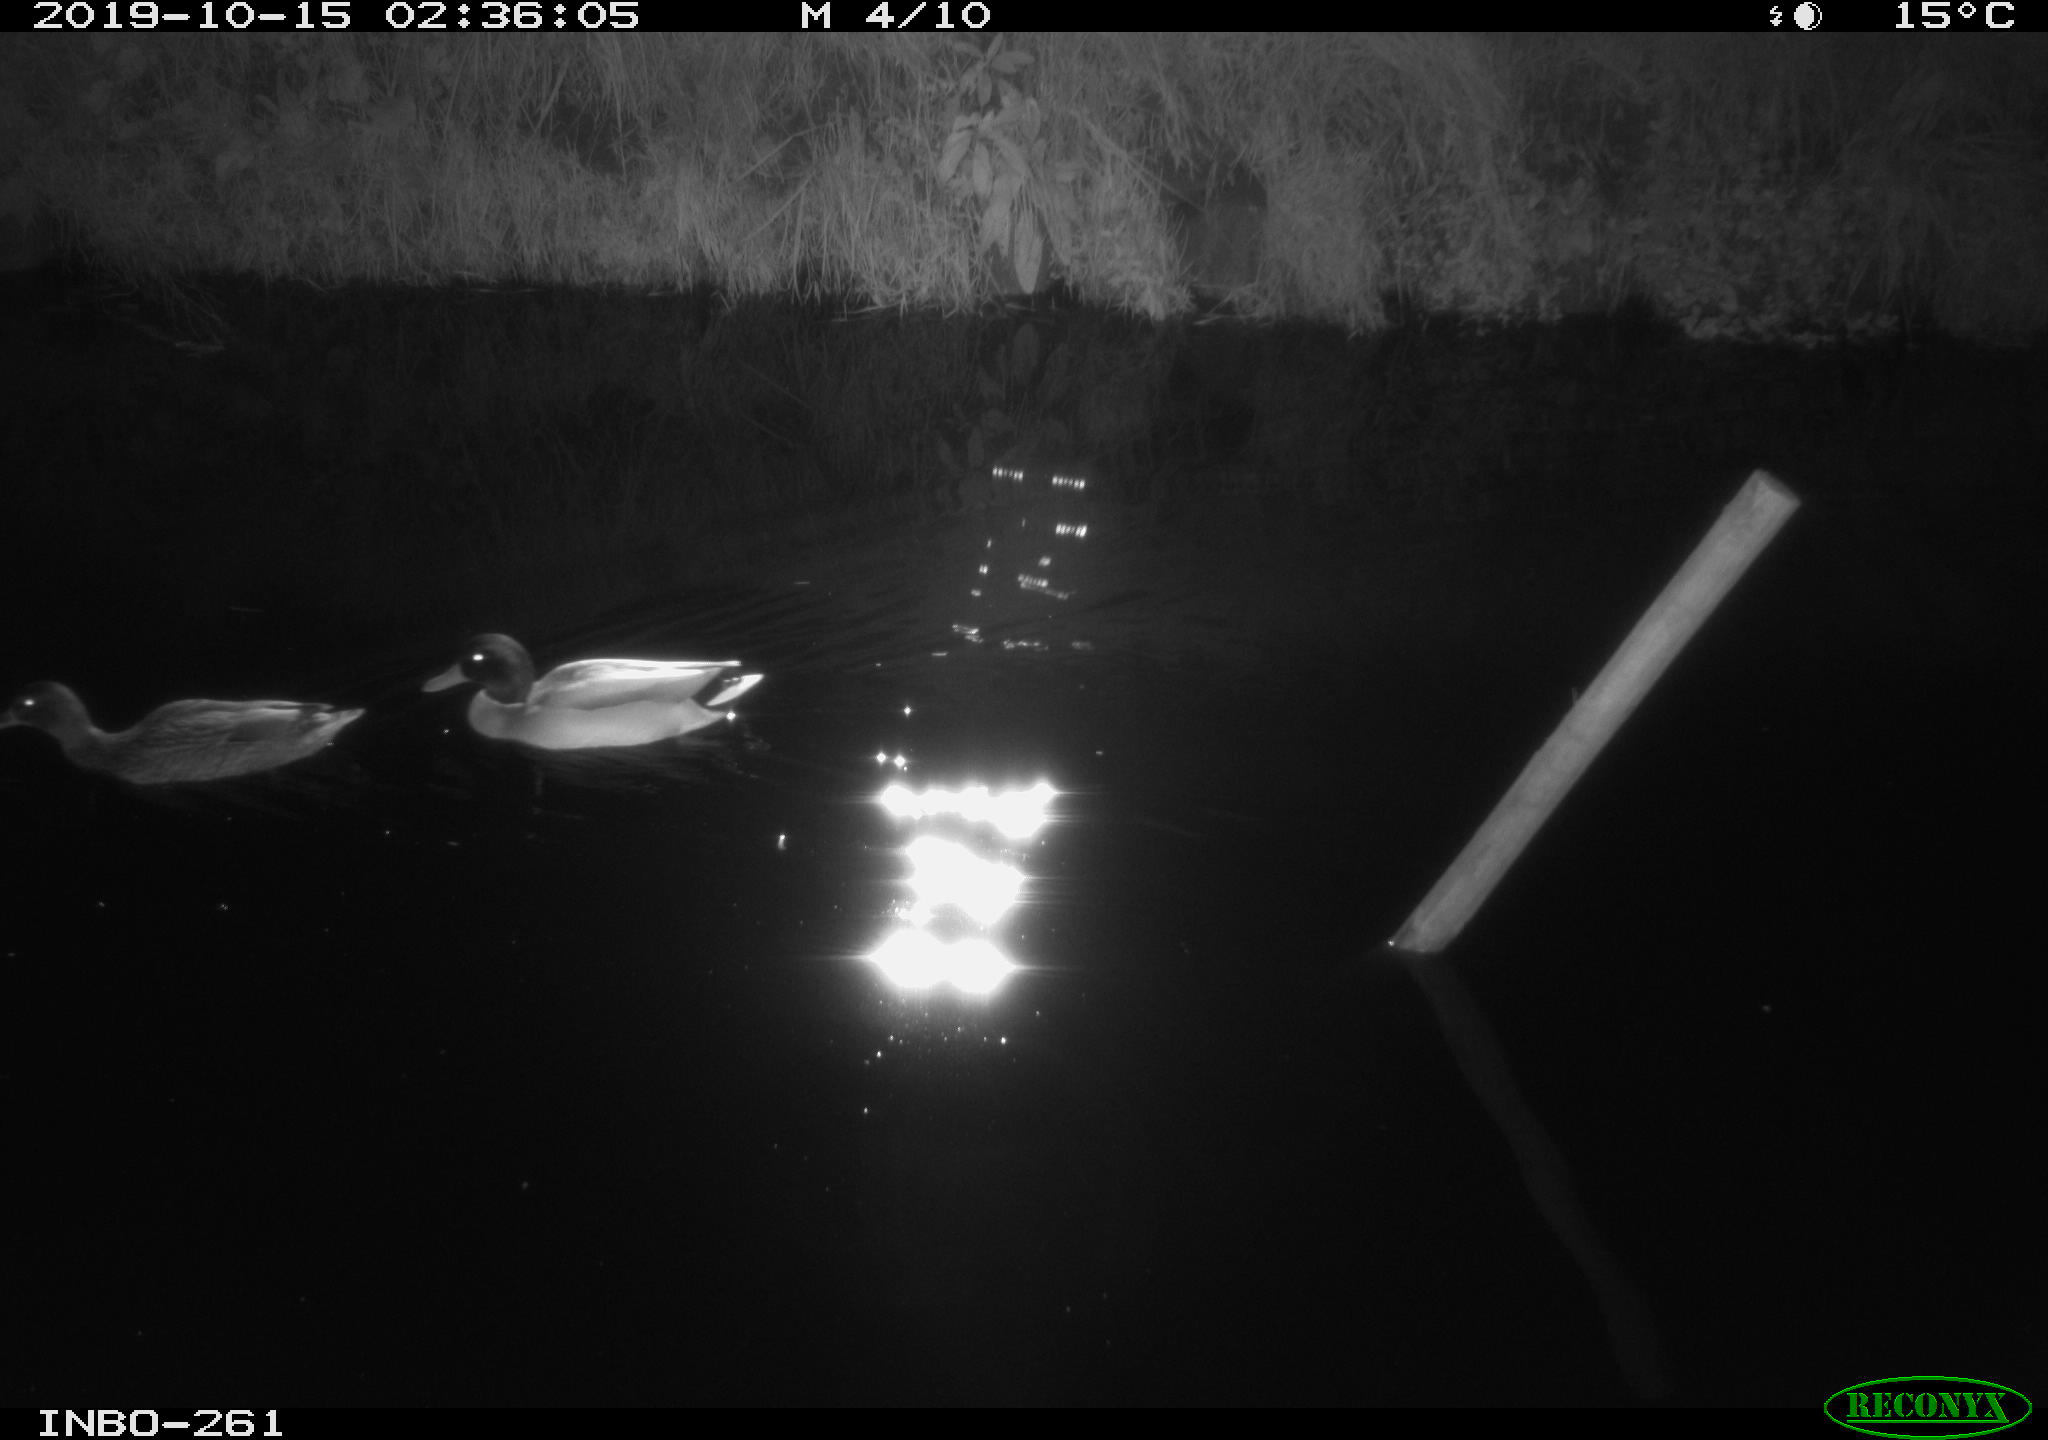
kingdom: Animalia
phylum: Chordata
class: Aves
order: Anseriformes
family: Anatidae
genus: Anas
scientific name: Anas platyrhynchos
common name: Mallard
